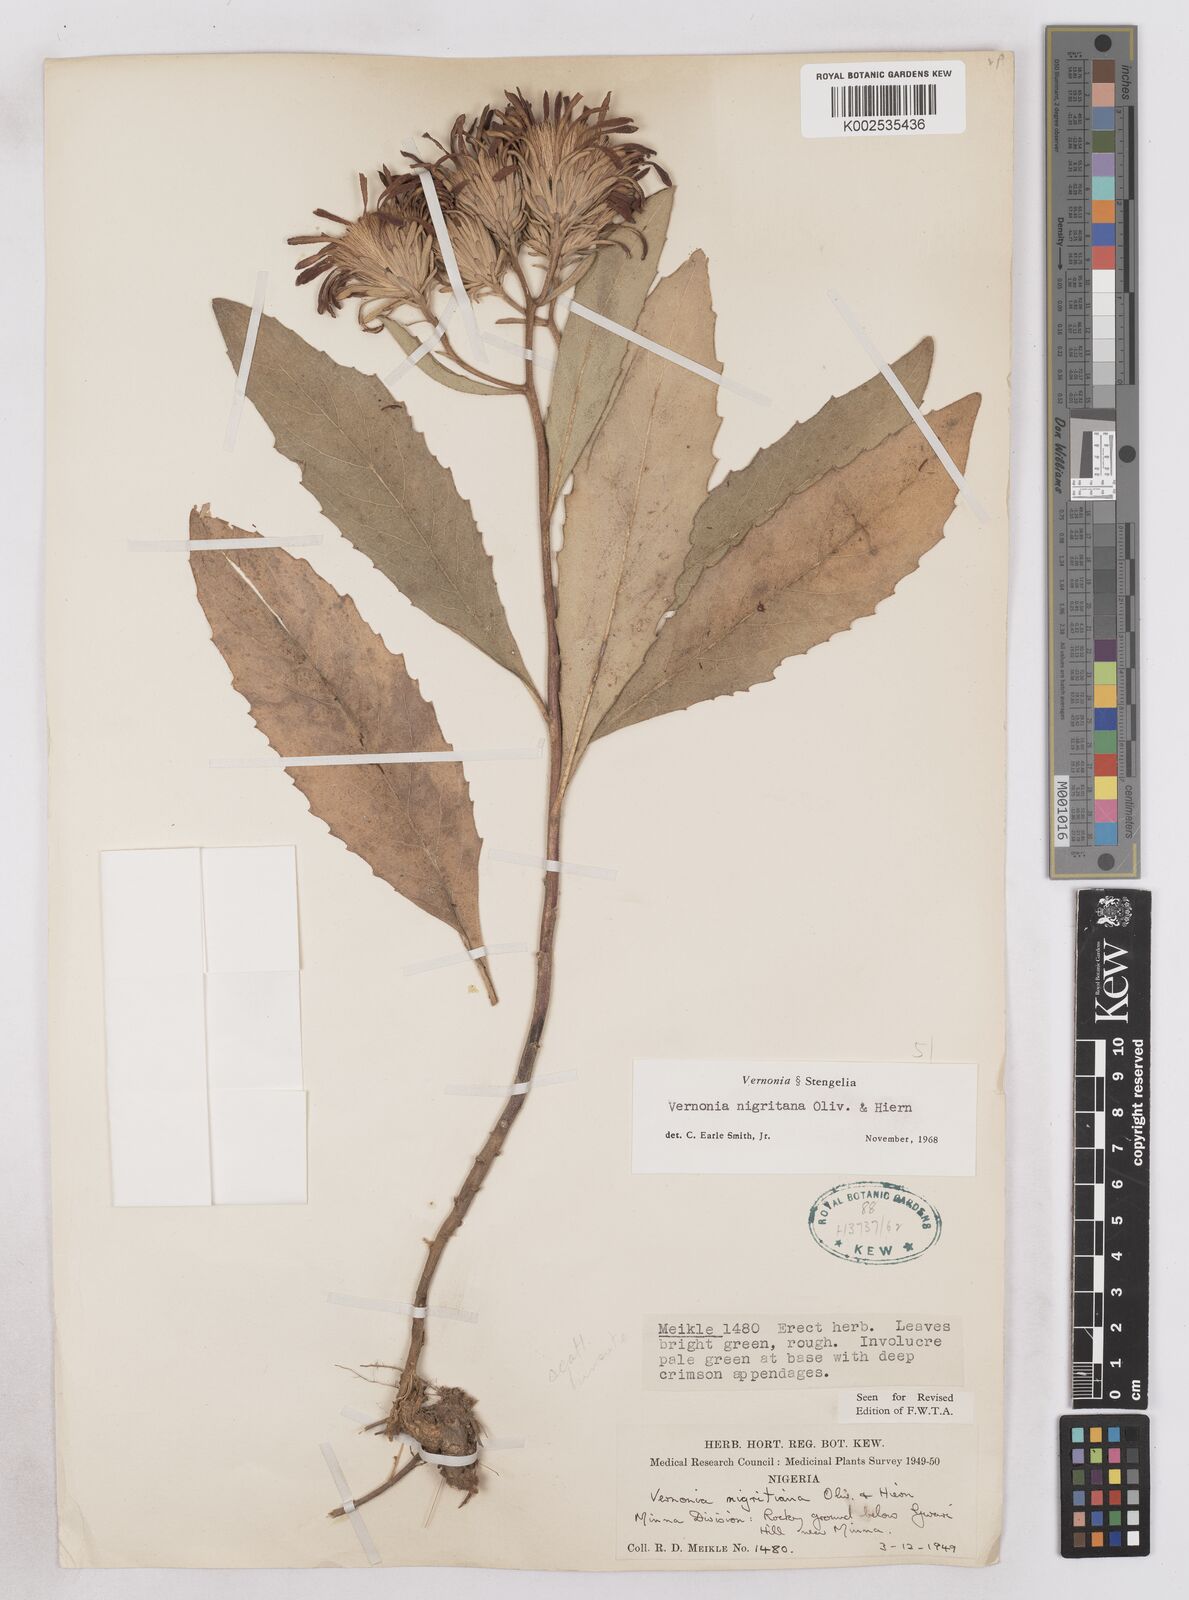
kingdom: Plantae
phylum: Tracheophyta
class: Magnoliopsida
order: Asterales
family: Asteraceae
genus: Linzia
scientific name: Linzia nigritiana
